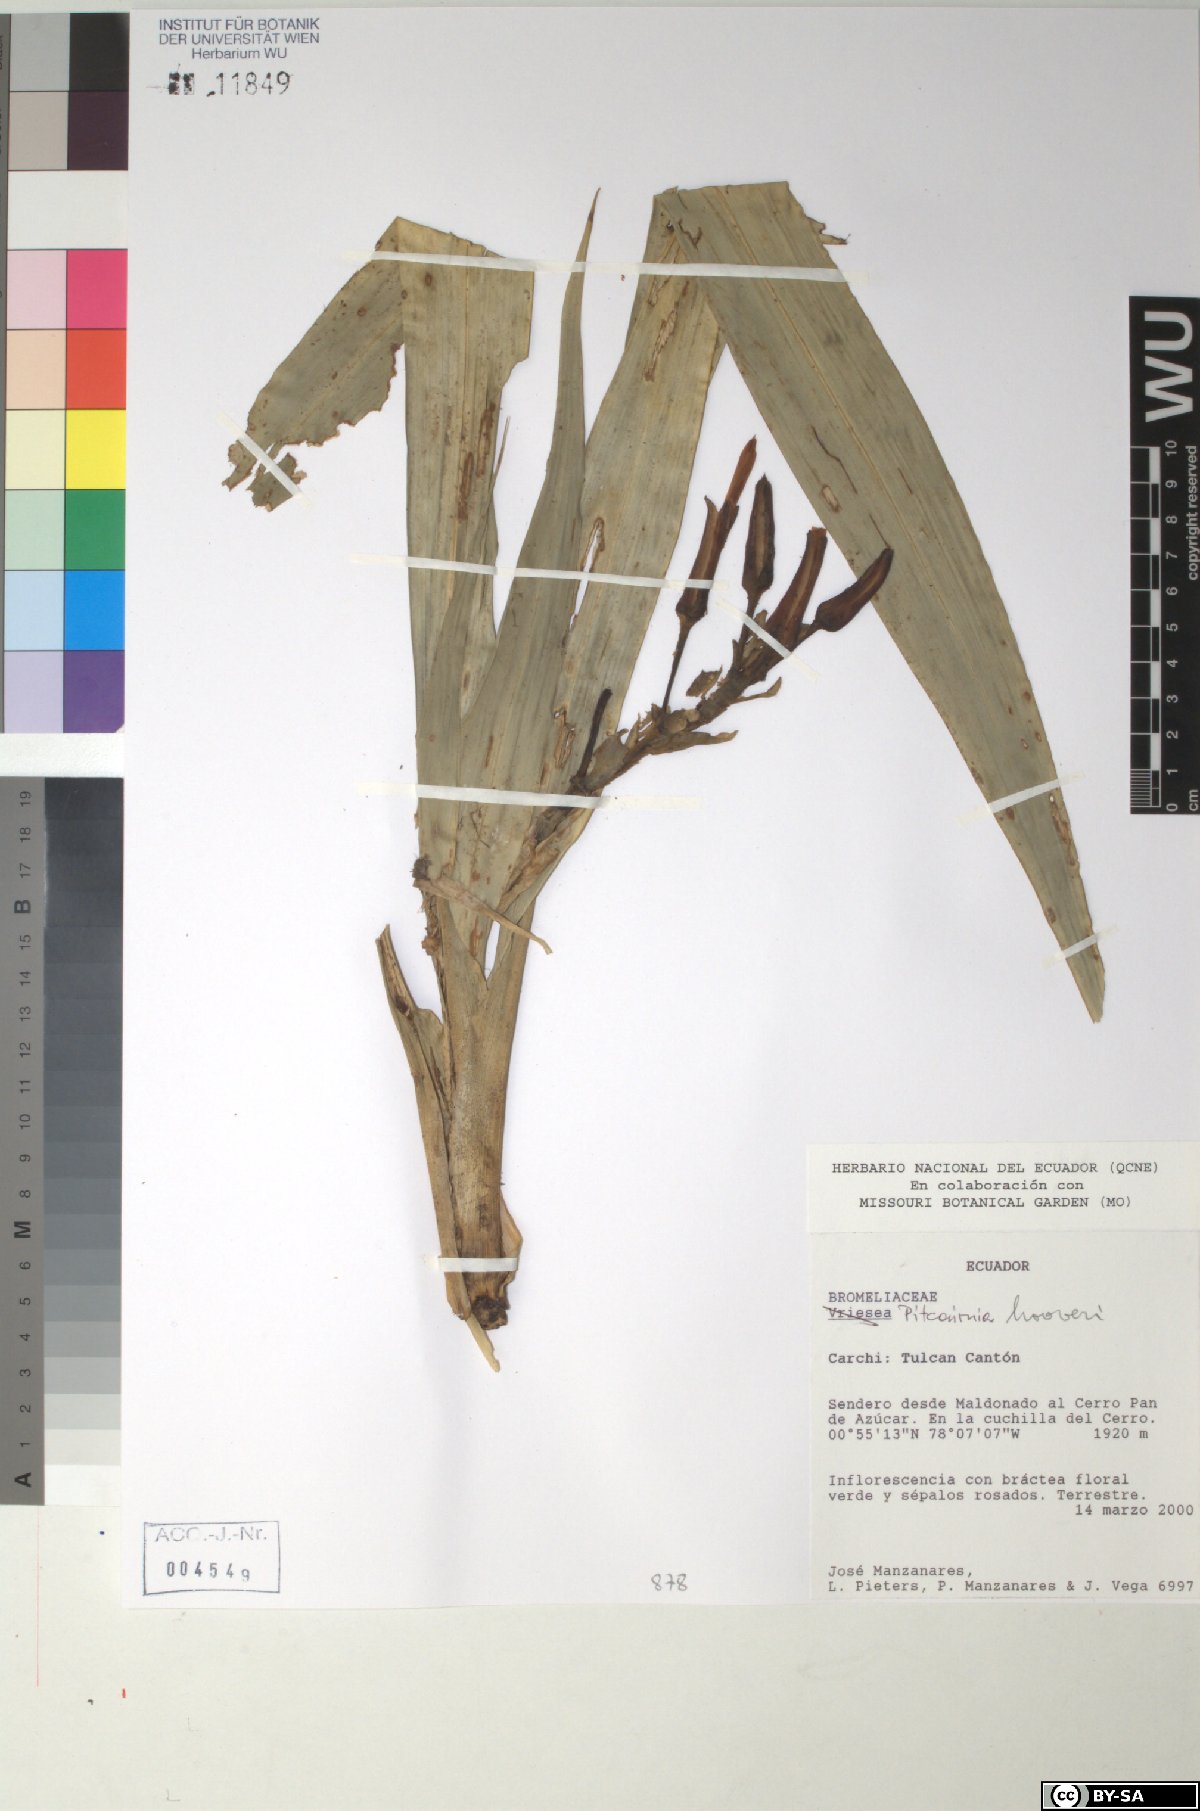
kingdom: Plantae
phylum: Tracheophyta
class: Liliopsida
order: Poales
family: Bromeliaceae
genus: Pitcairnia
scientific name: Pitcairnia
